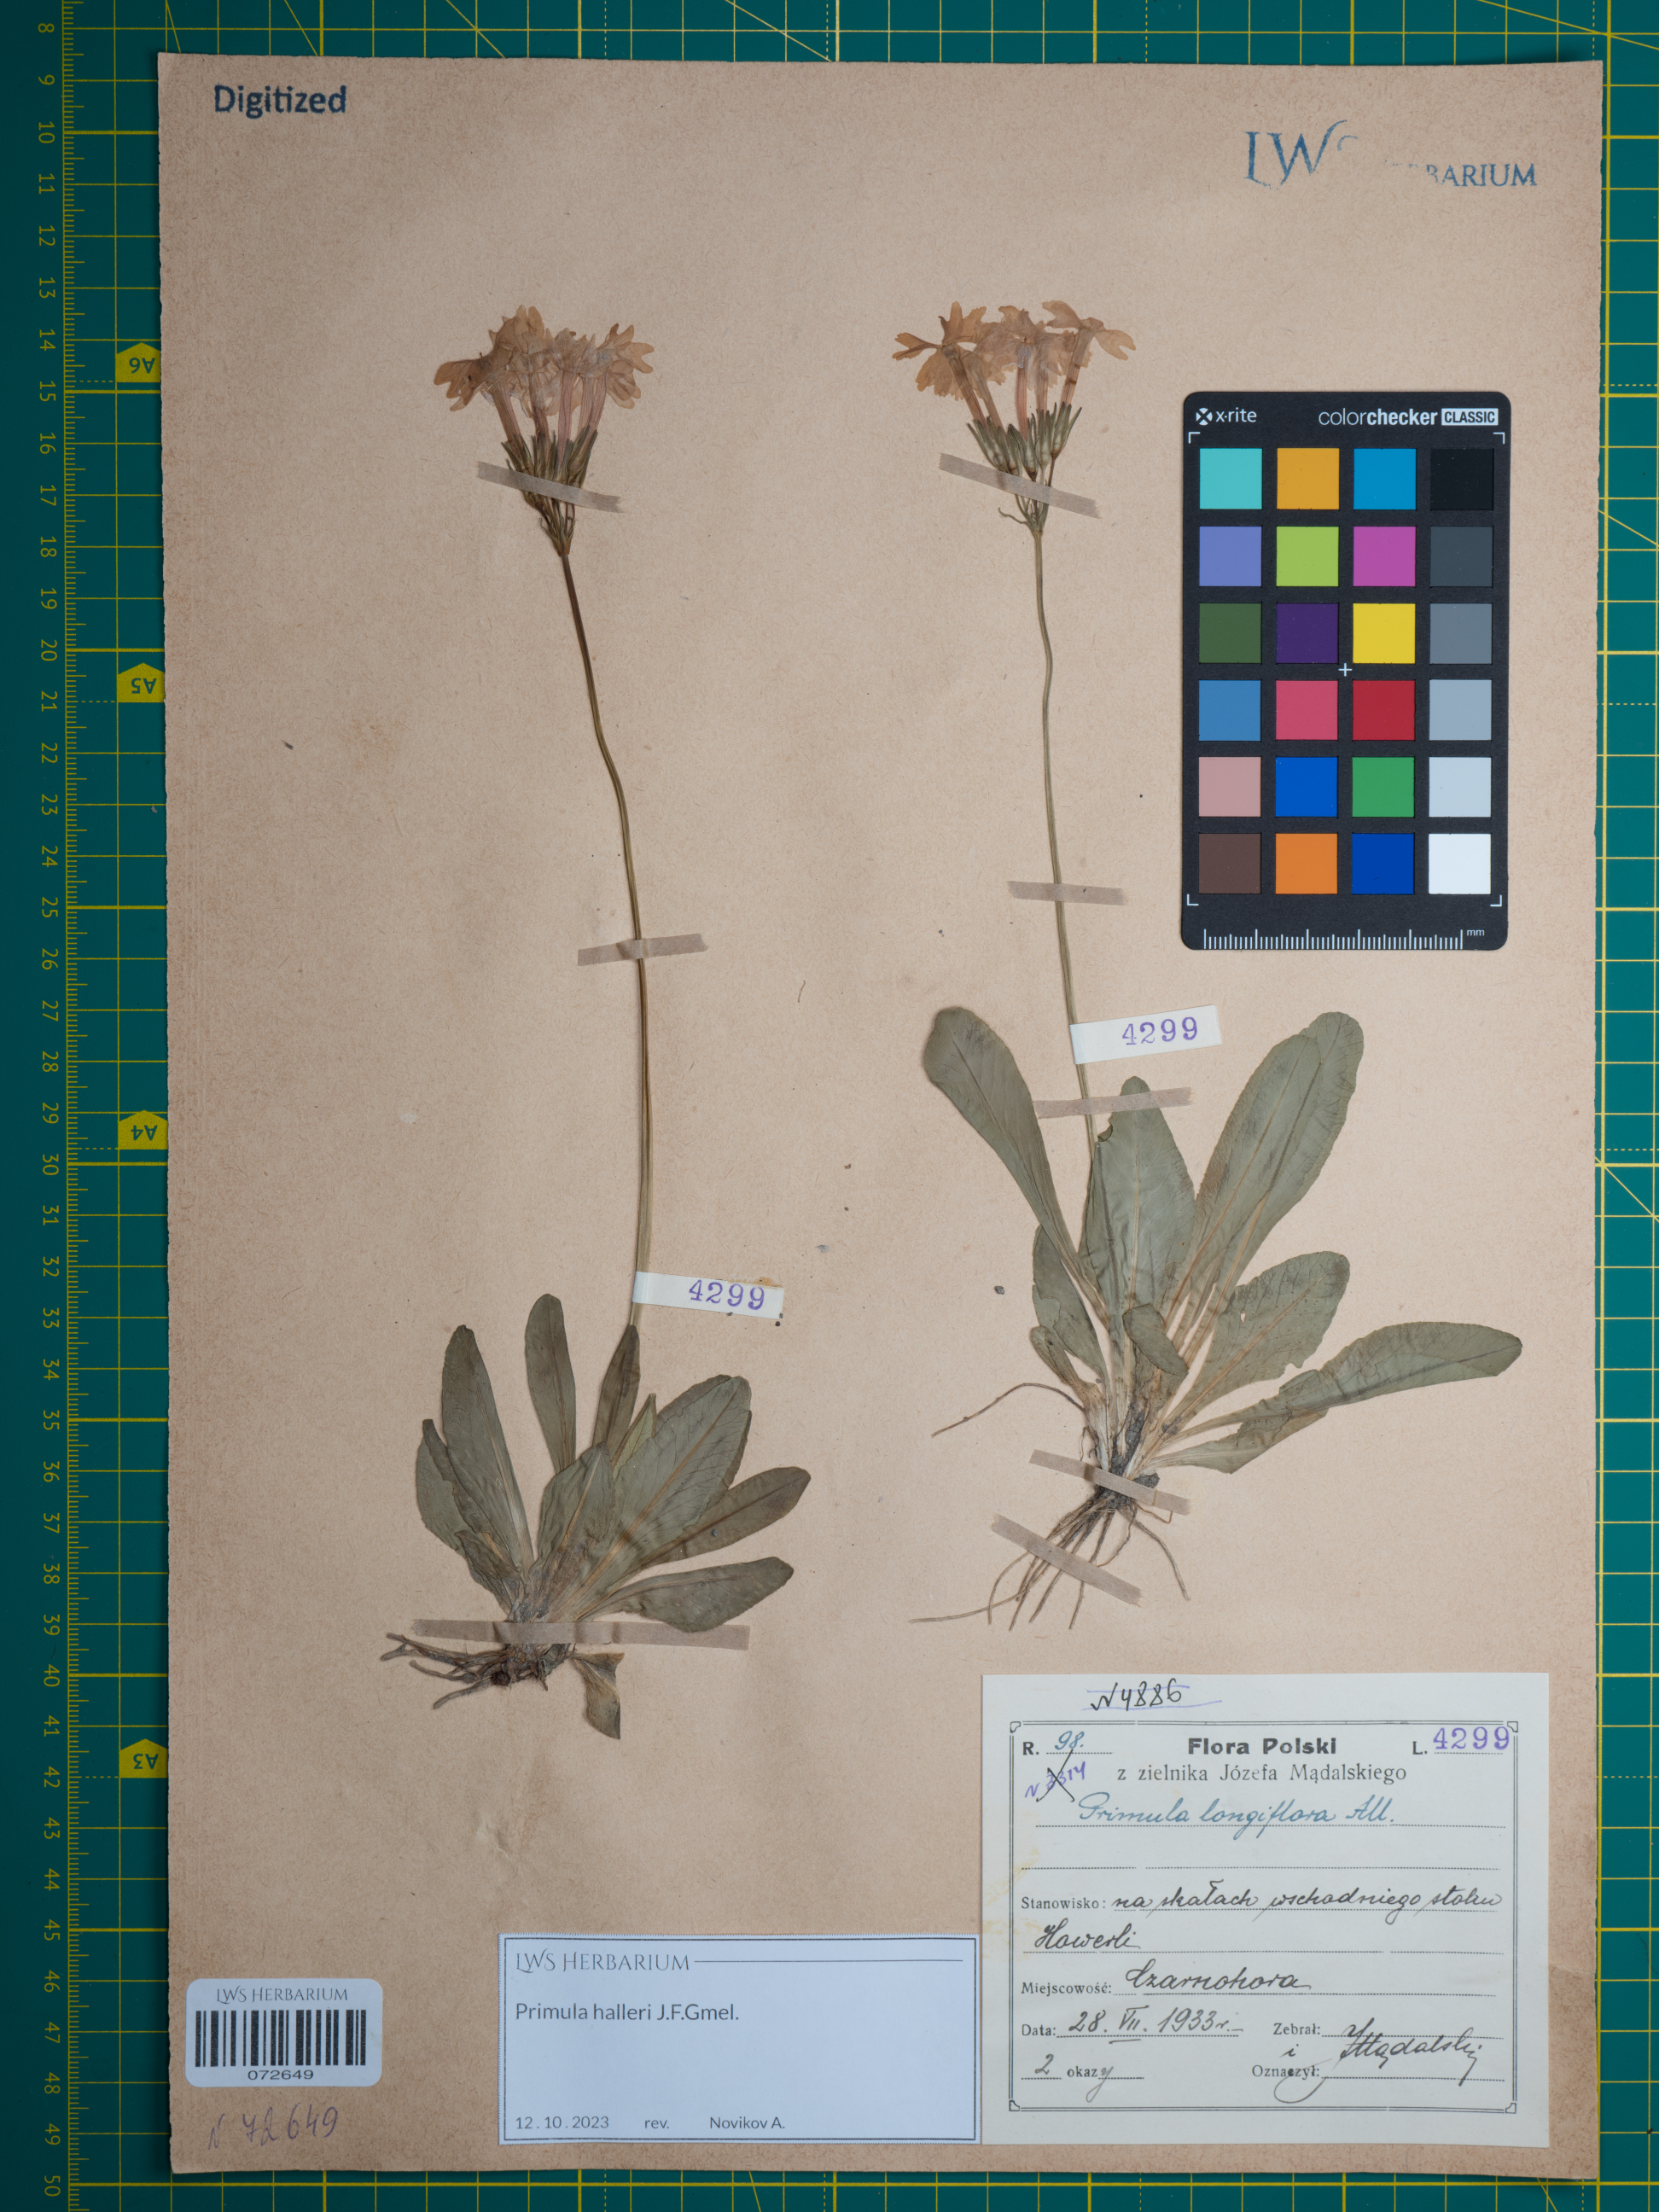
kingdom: Plantae
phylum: Tracheophyta
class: Magnoliopsida
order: Ericales
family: Primulaceae
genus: Primula
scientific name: Primula halleri
